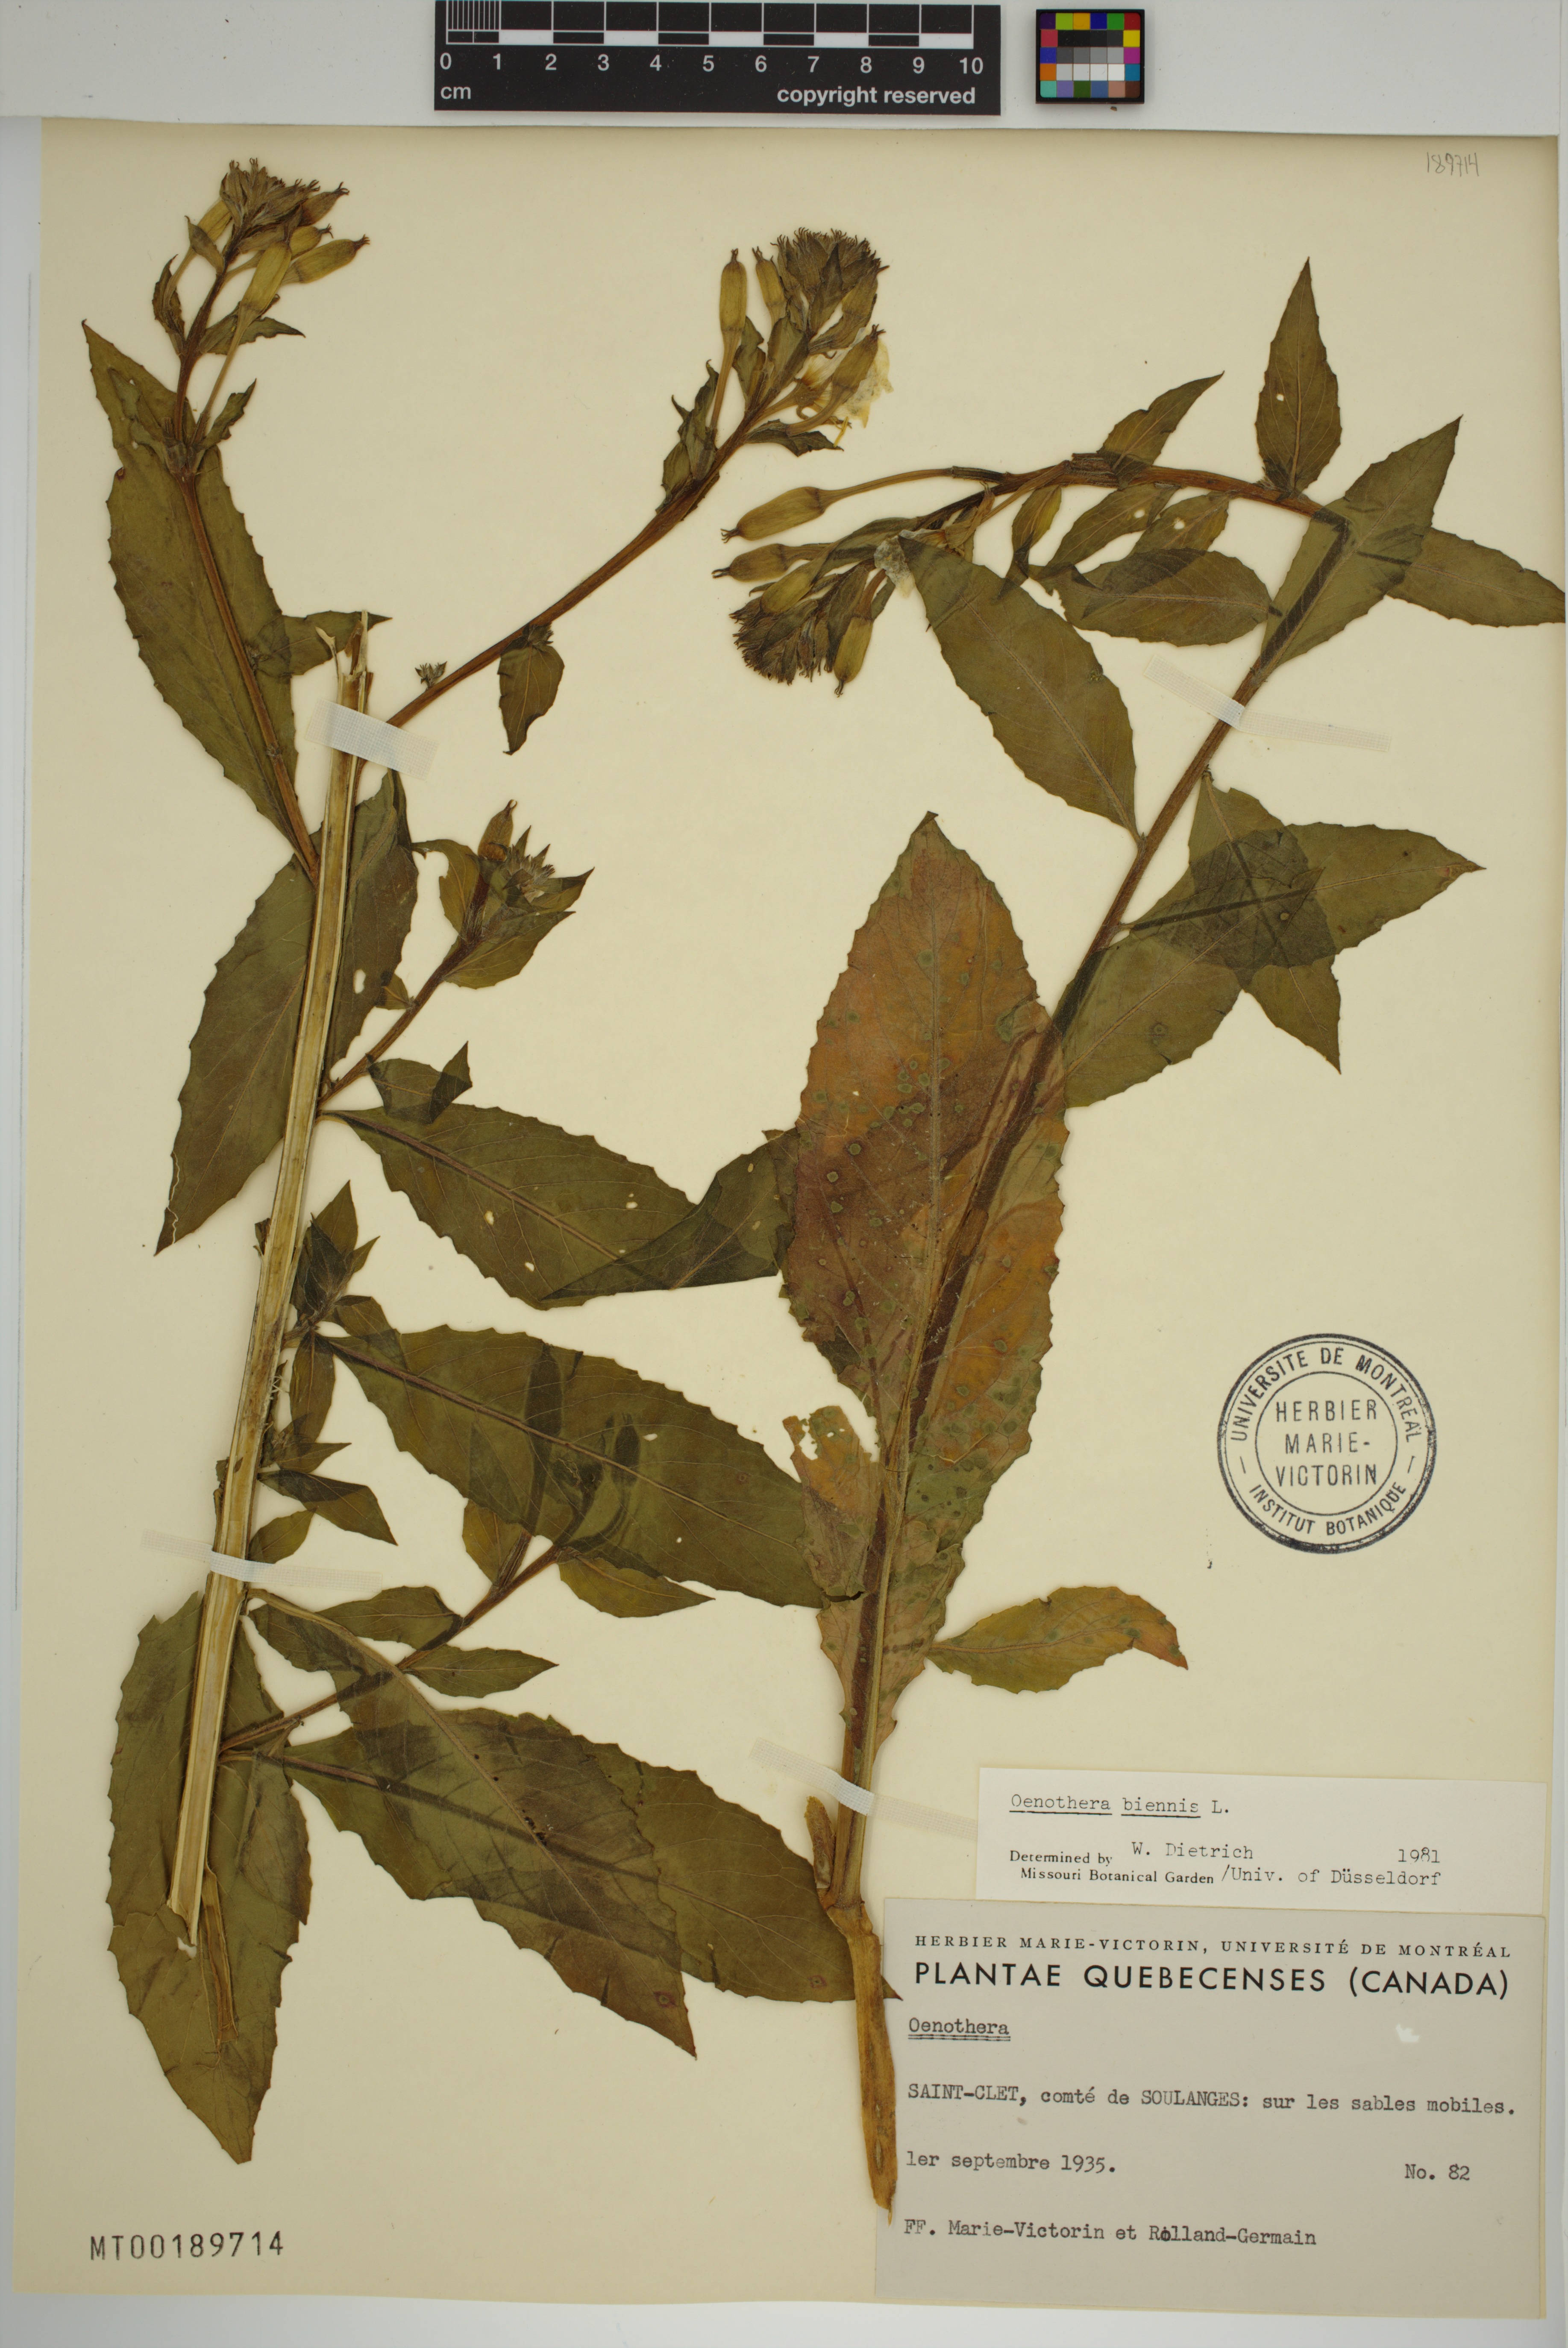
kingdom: Plantae
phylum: Tracheophyta
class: Magnoliopsida
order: Myrtales
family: Onagraceae
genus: Oenothera
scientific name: Oenothera biennis
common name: Common evening-primrose
